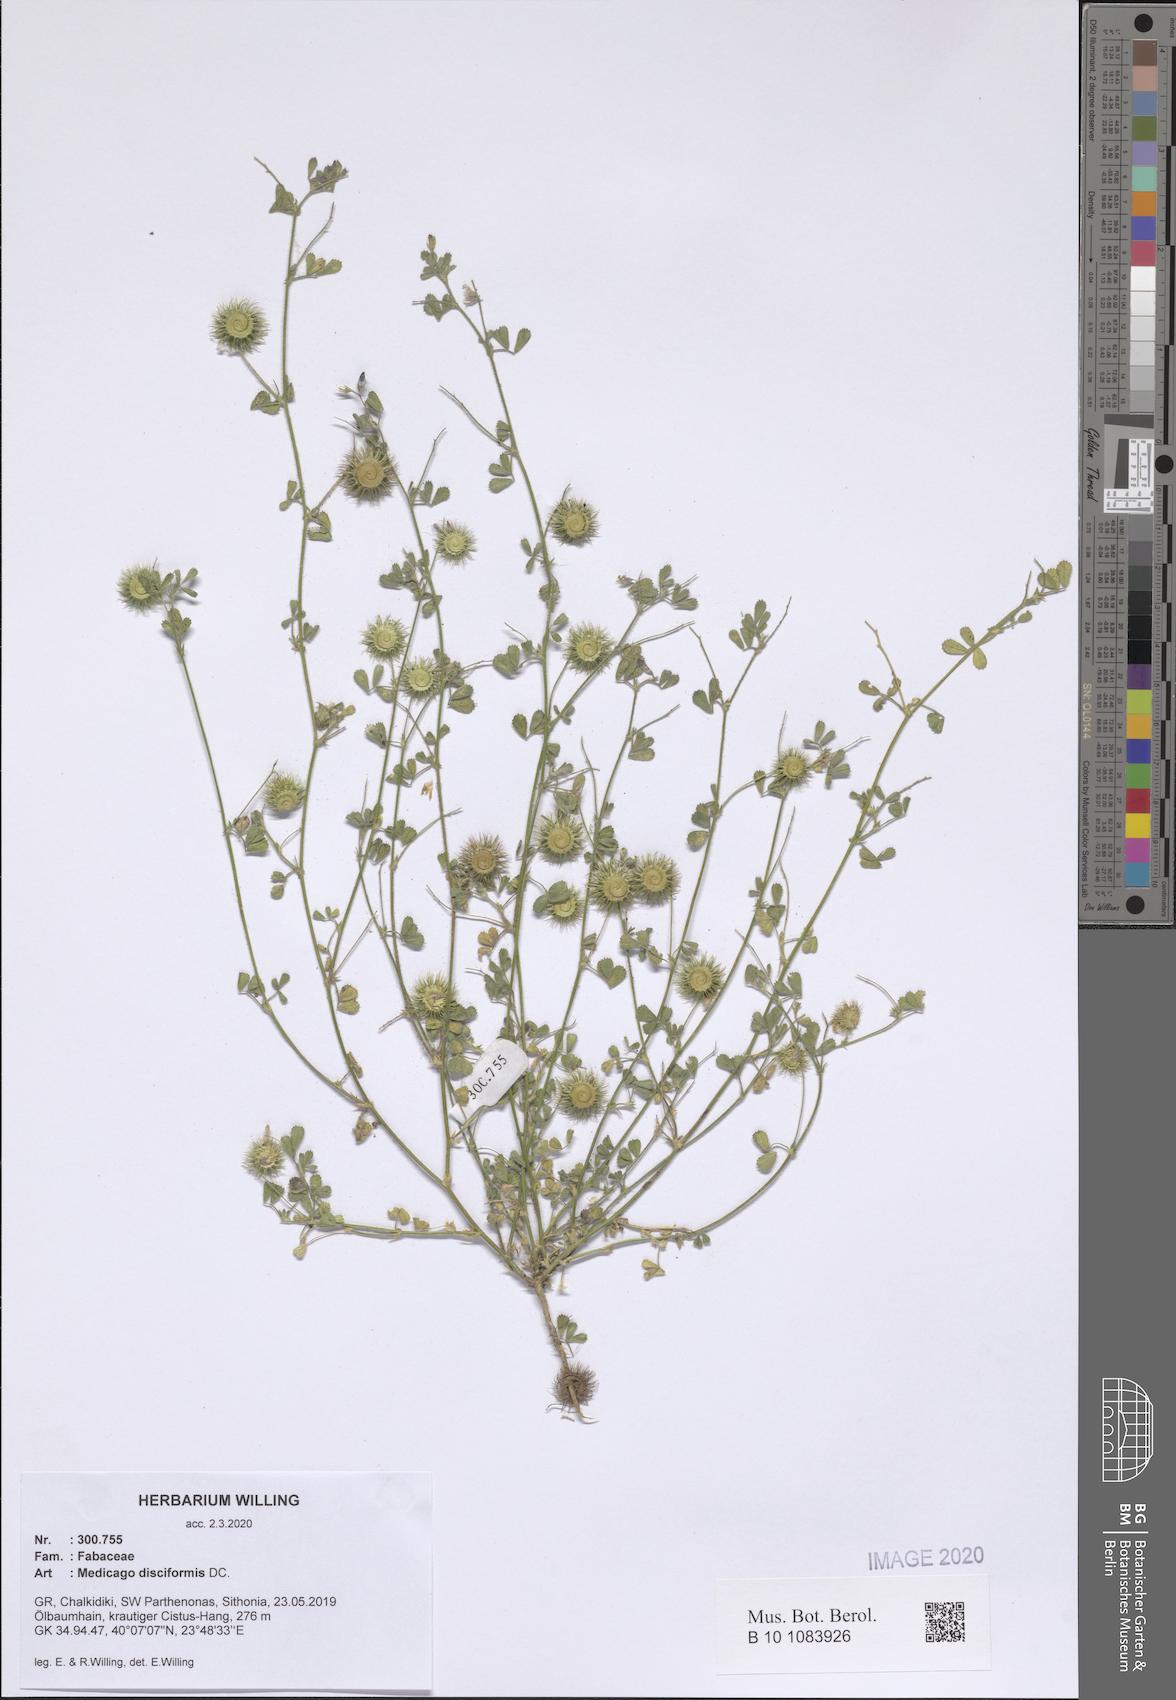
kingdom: Plantae
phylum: Tracheophyta
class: Magnoliopsida
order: Fabales
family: Fabaceae
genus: Medicago
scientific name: Medicago disciformis
